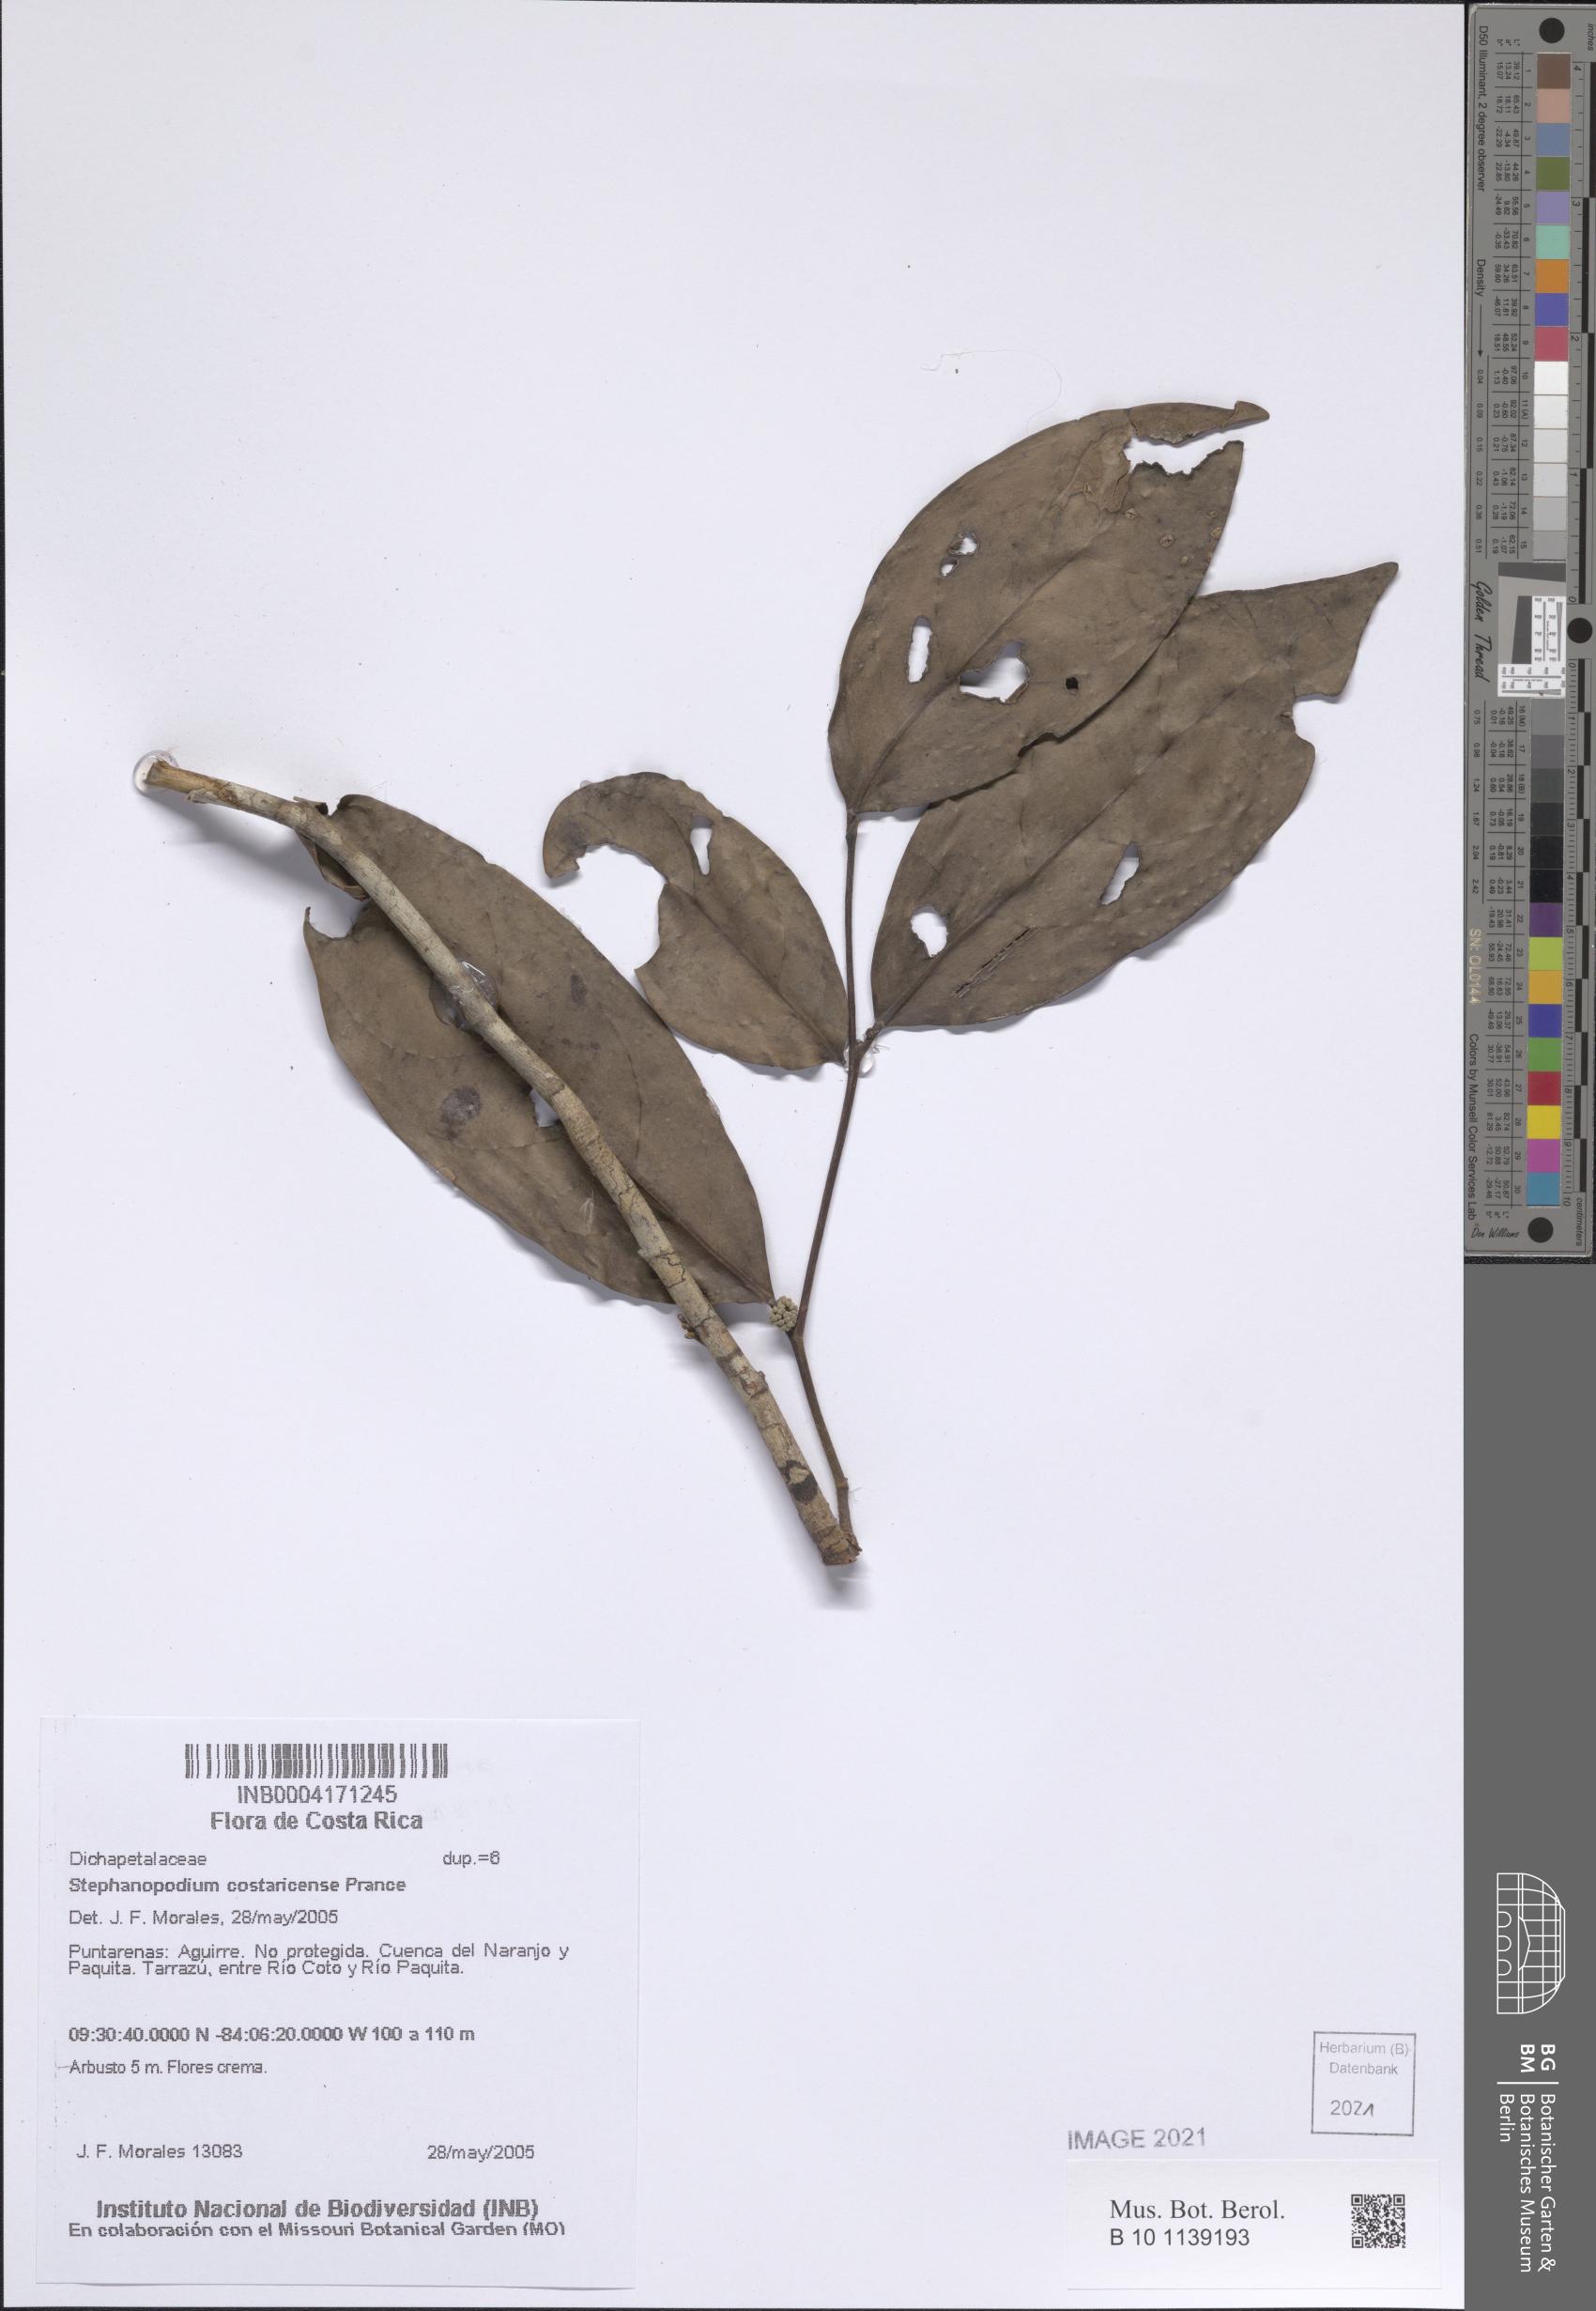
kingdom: Plantae
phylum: Tracheophyta
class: Magnoliopsida
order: Malpighiales
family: Dichapetalaceae
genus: Stephanopodium
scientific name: Stephanopodium costaricense
